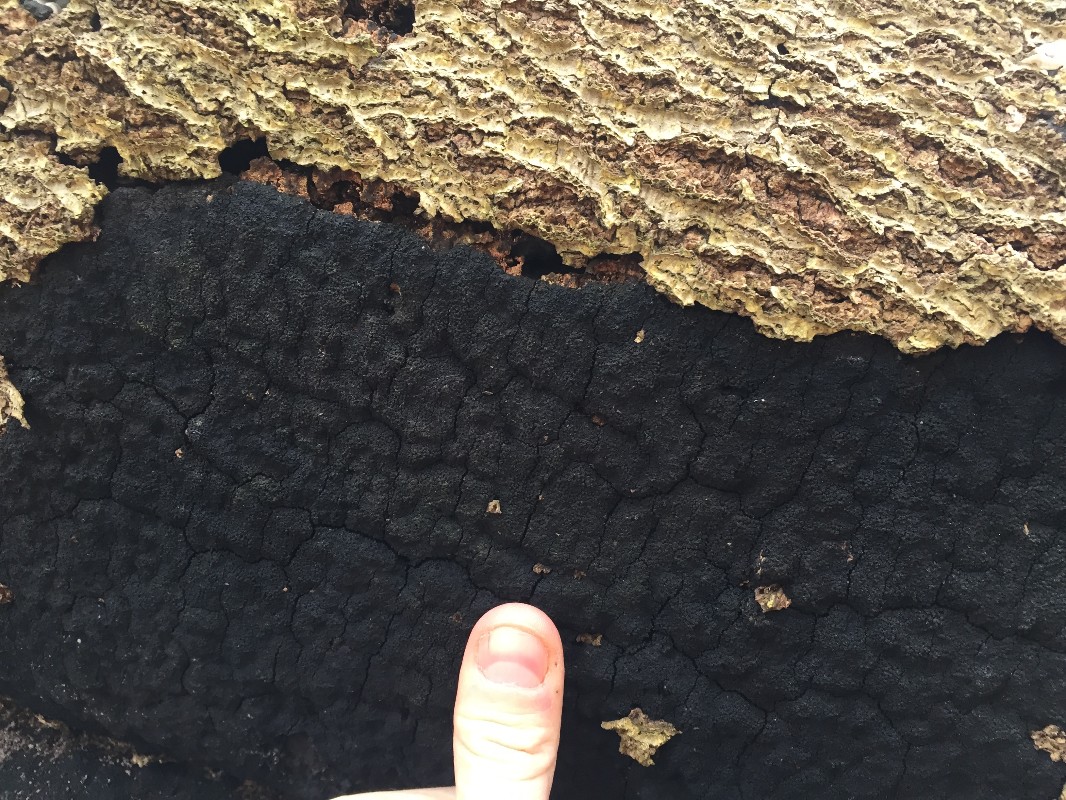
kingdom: Fungi
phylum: Ascomycota
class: Sordariomycetes
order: Xylariales
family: Diatrypaceae
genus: Eutypa
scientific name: Eutypa spinosa
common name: grov kulskorpe
